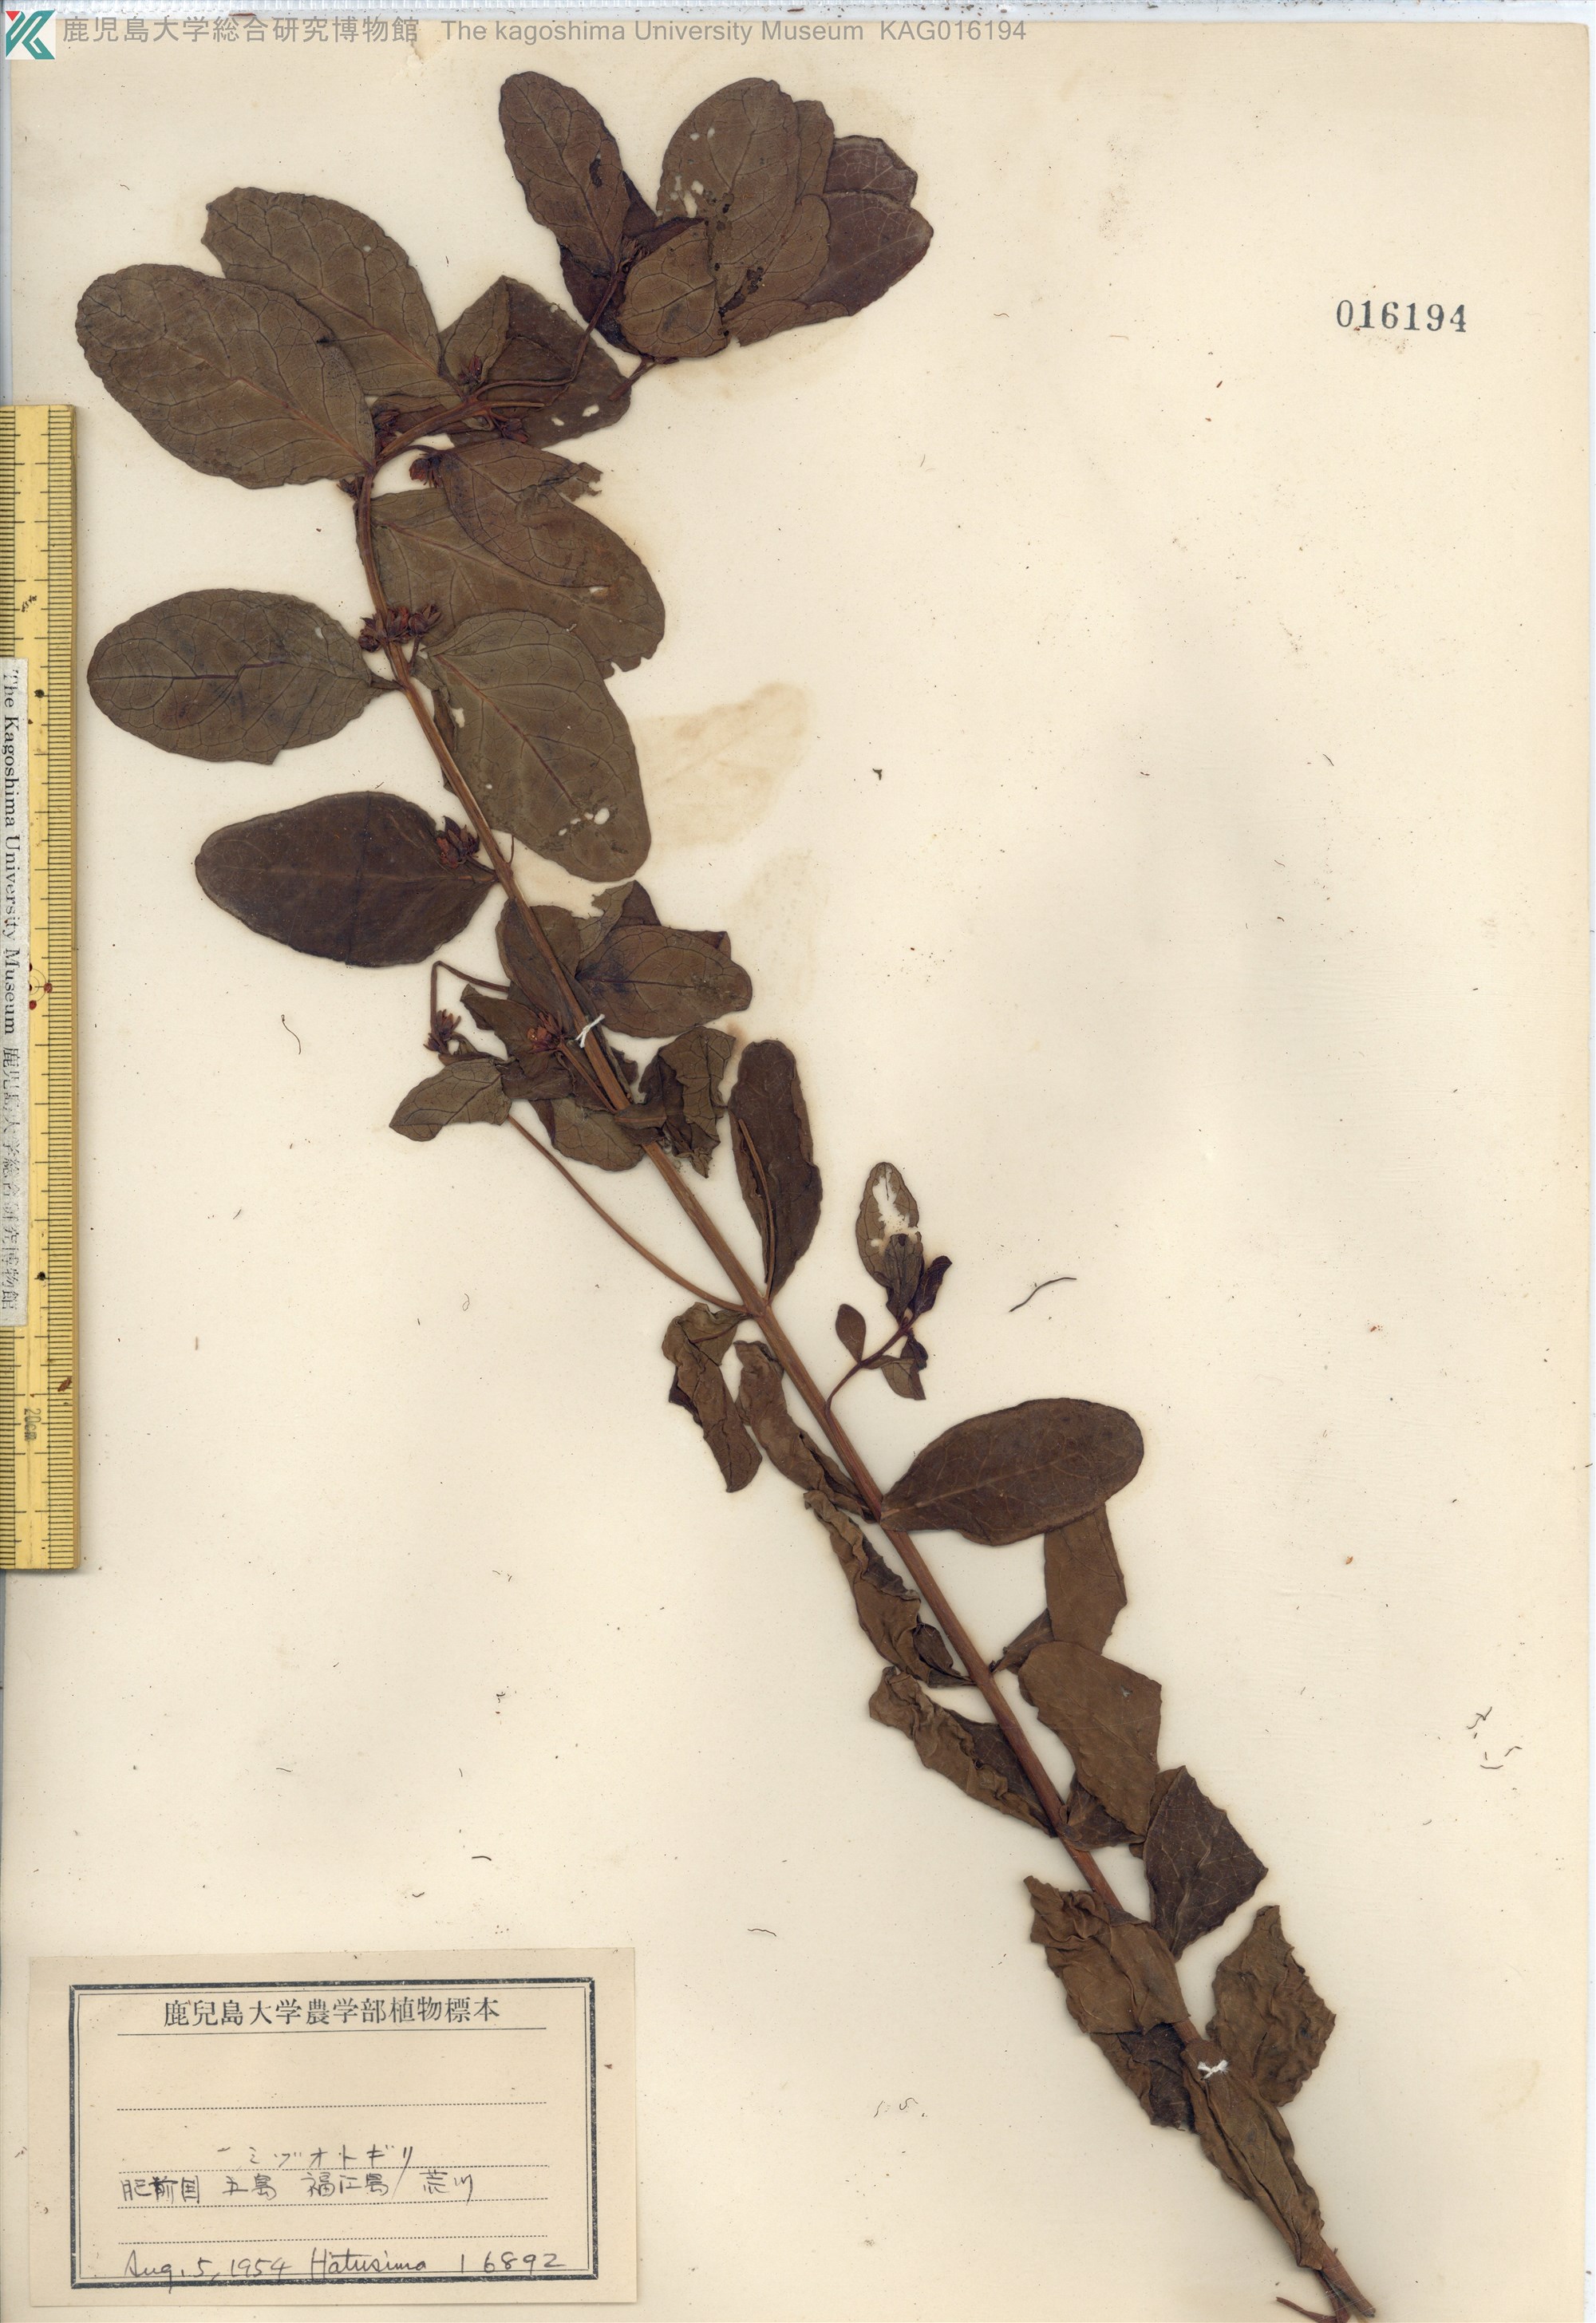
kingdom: Plantae
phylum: Tracheophyta
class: Magnoliopsida
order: Malpighiales
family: Hypericaceae
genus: Triadenum
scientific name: Triadenum japonicum
